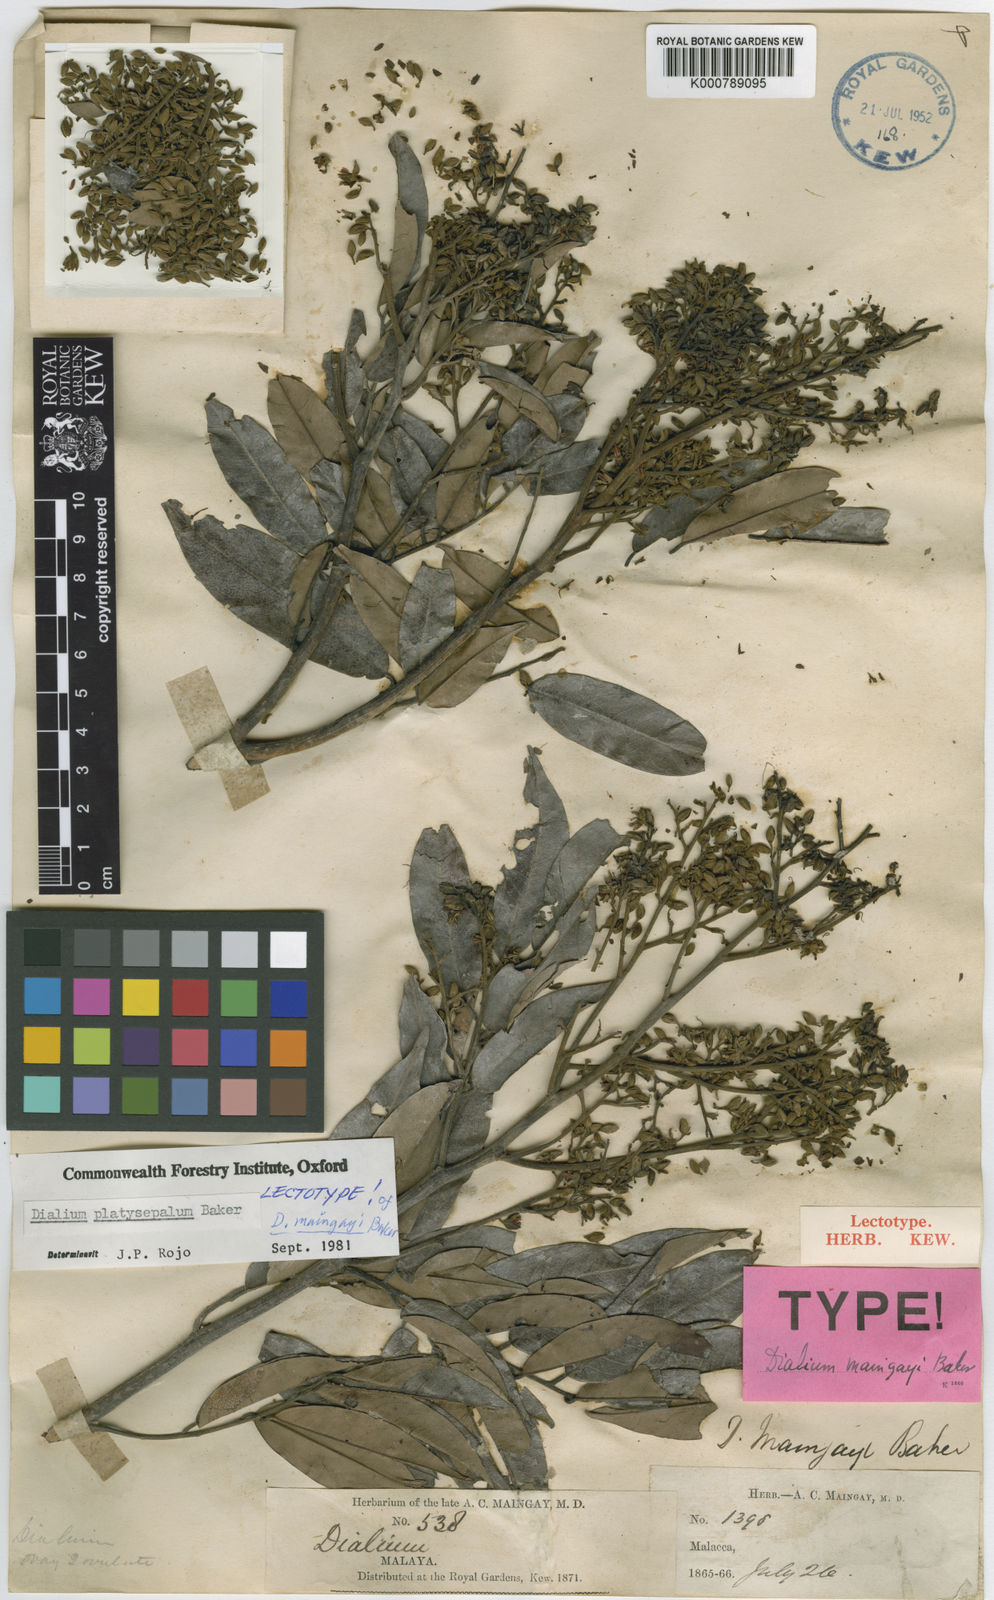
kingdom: Plantae
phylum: Tracheophyta
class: Magnoliopsida
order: Fabales
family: Fabaceae
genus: Dialium
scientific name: Dialium platysepalum
